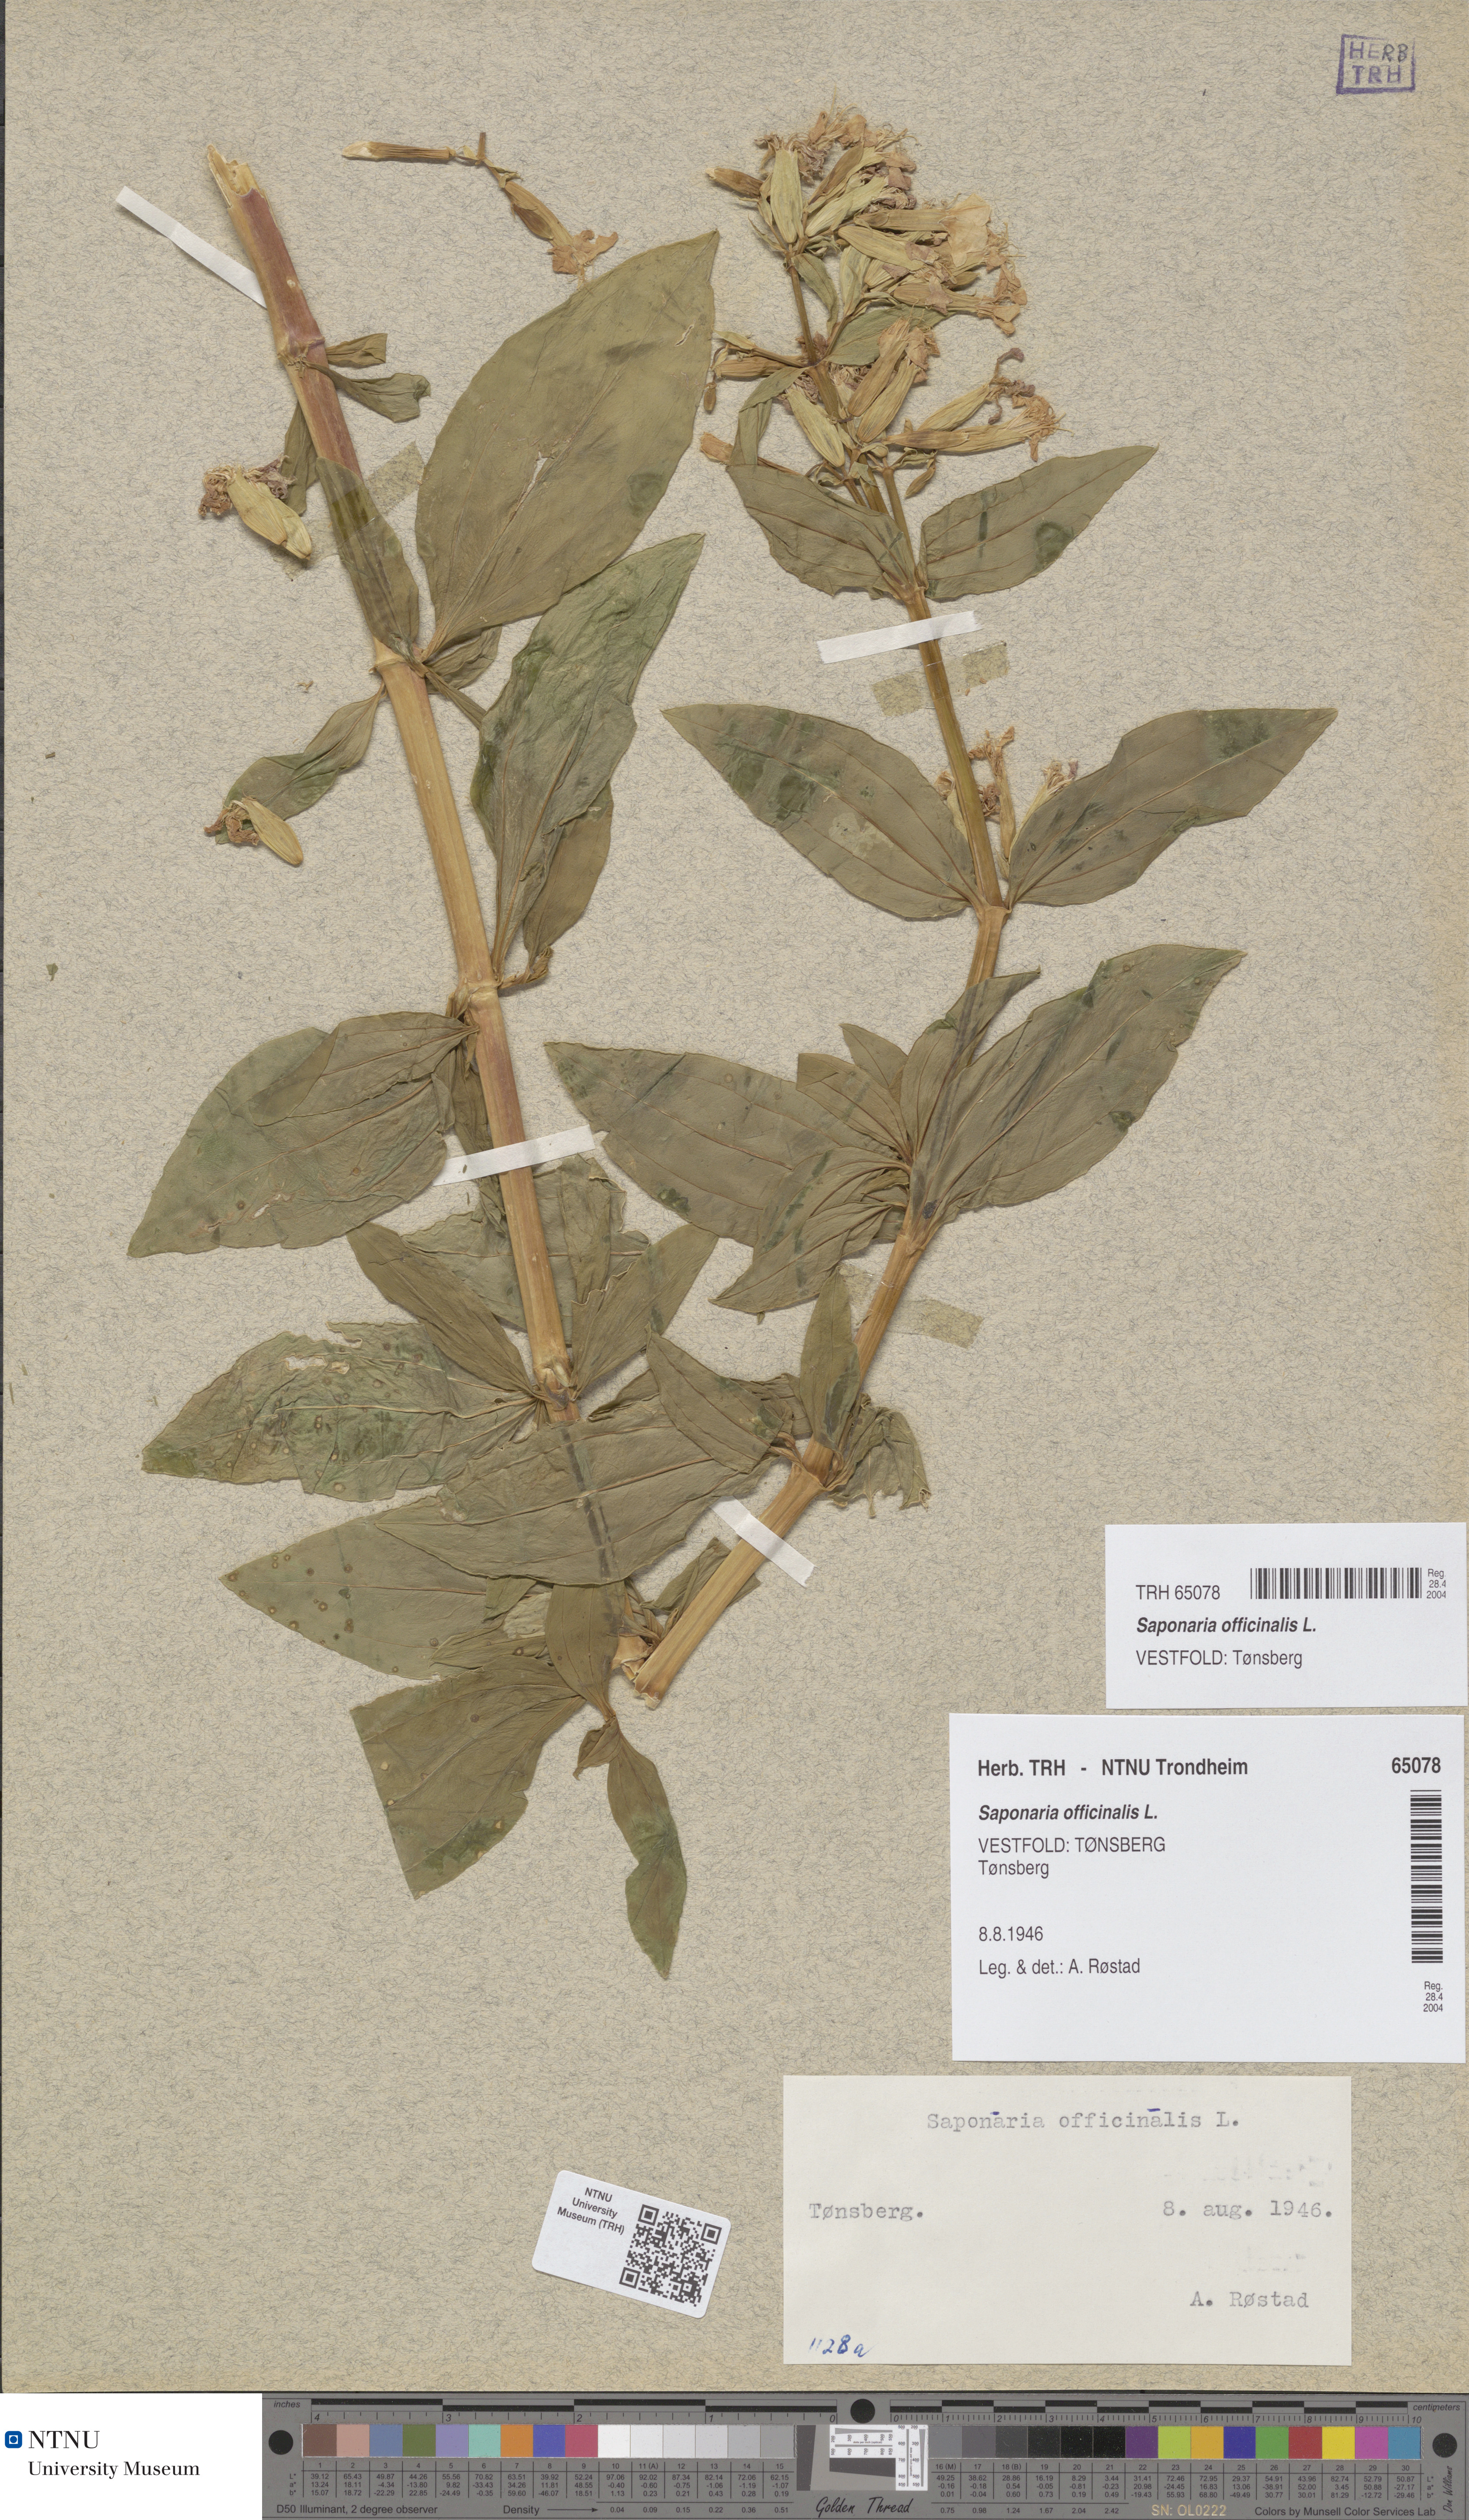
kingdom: Plantae
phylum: Tracheophyta
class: Magnoliopsida
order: Caryophyllales
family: Caryophyllaceae
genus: Saponaria
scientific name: Saponaria officinalis
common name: Soapwort
